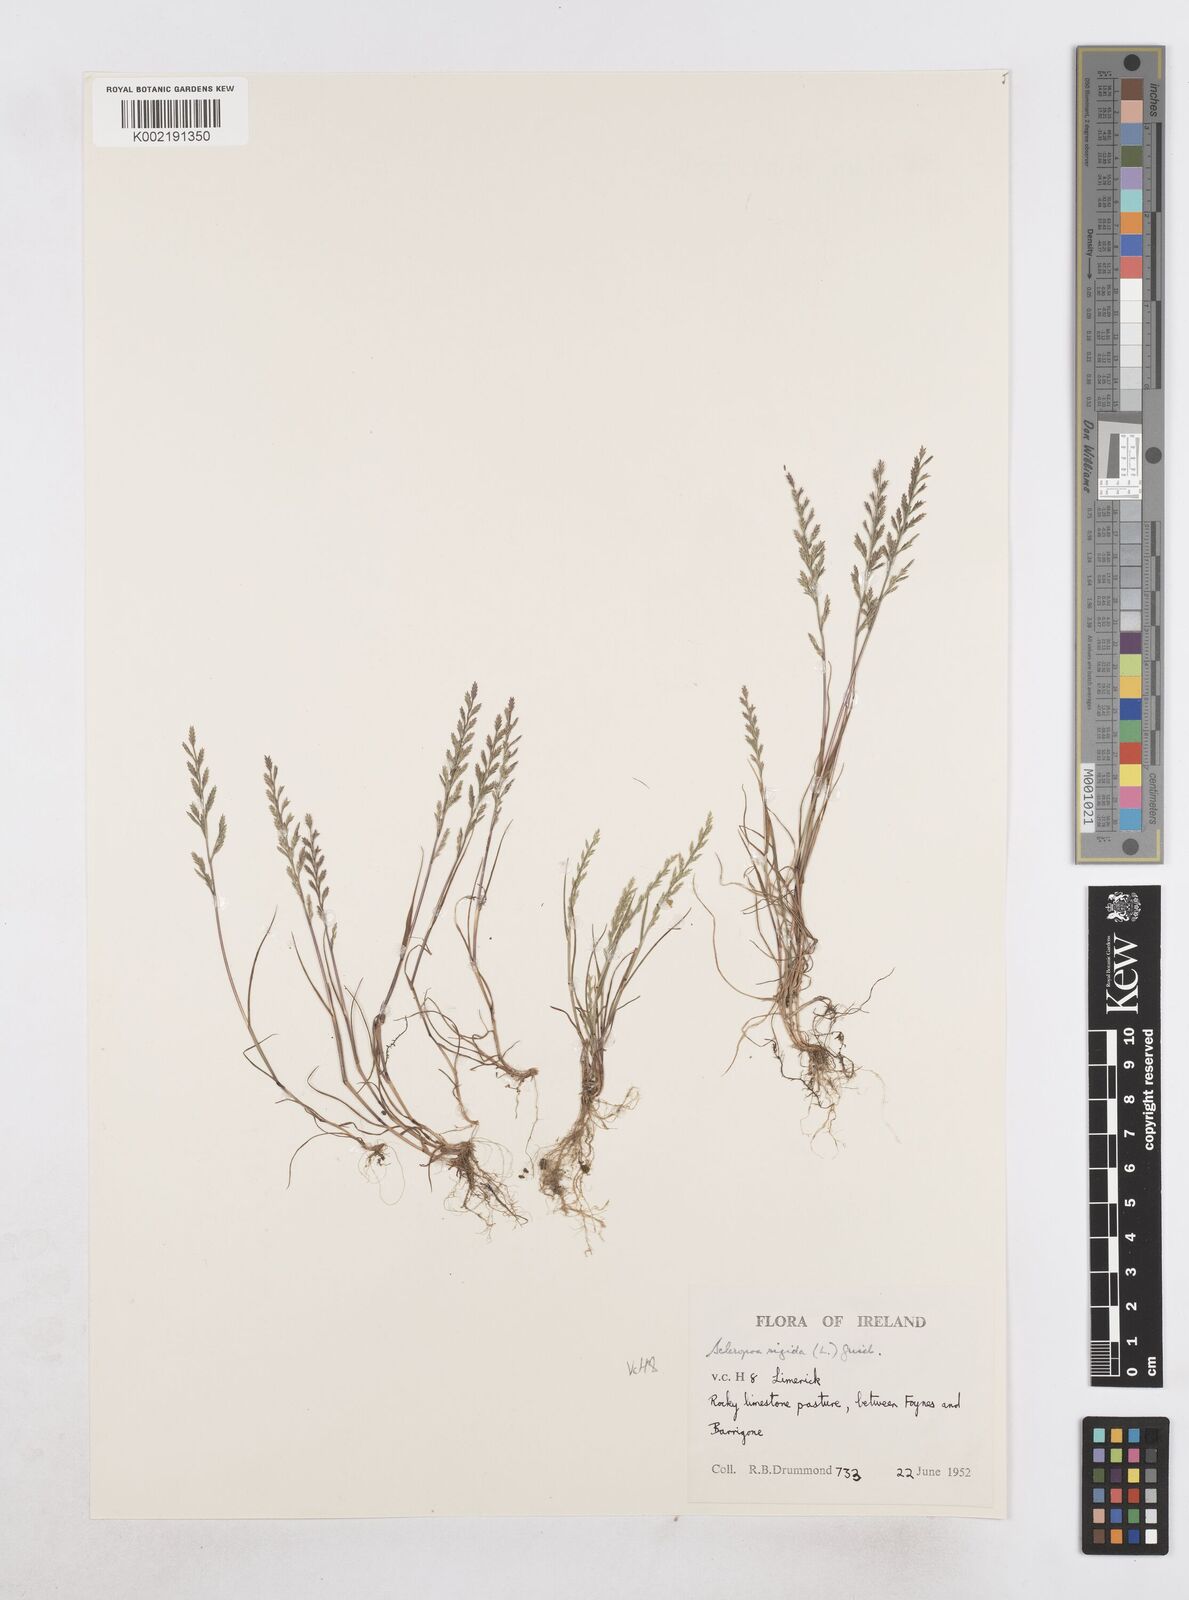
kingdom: Plantae
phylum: Tracheophyta
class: Liliopsida
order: Poales
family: Poaceae
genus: Catapodium
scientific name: Catapodium rigidum
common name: Fern-grass
